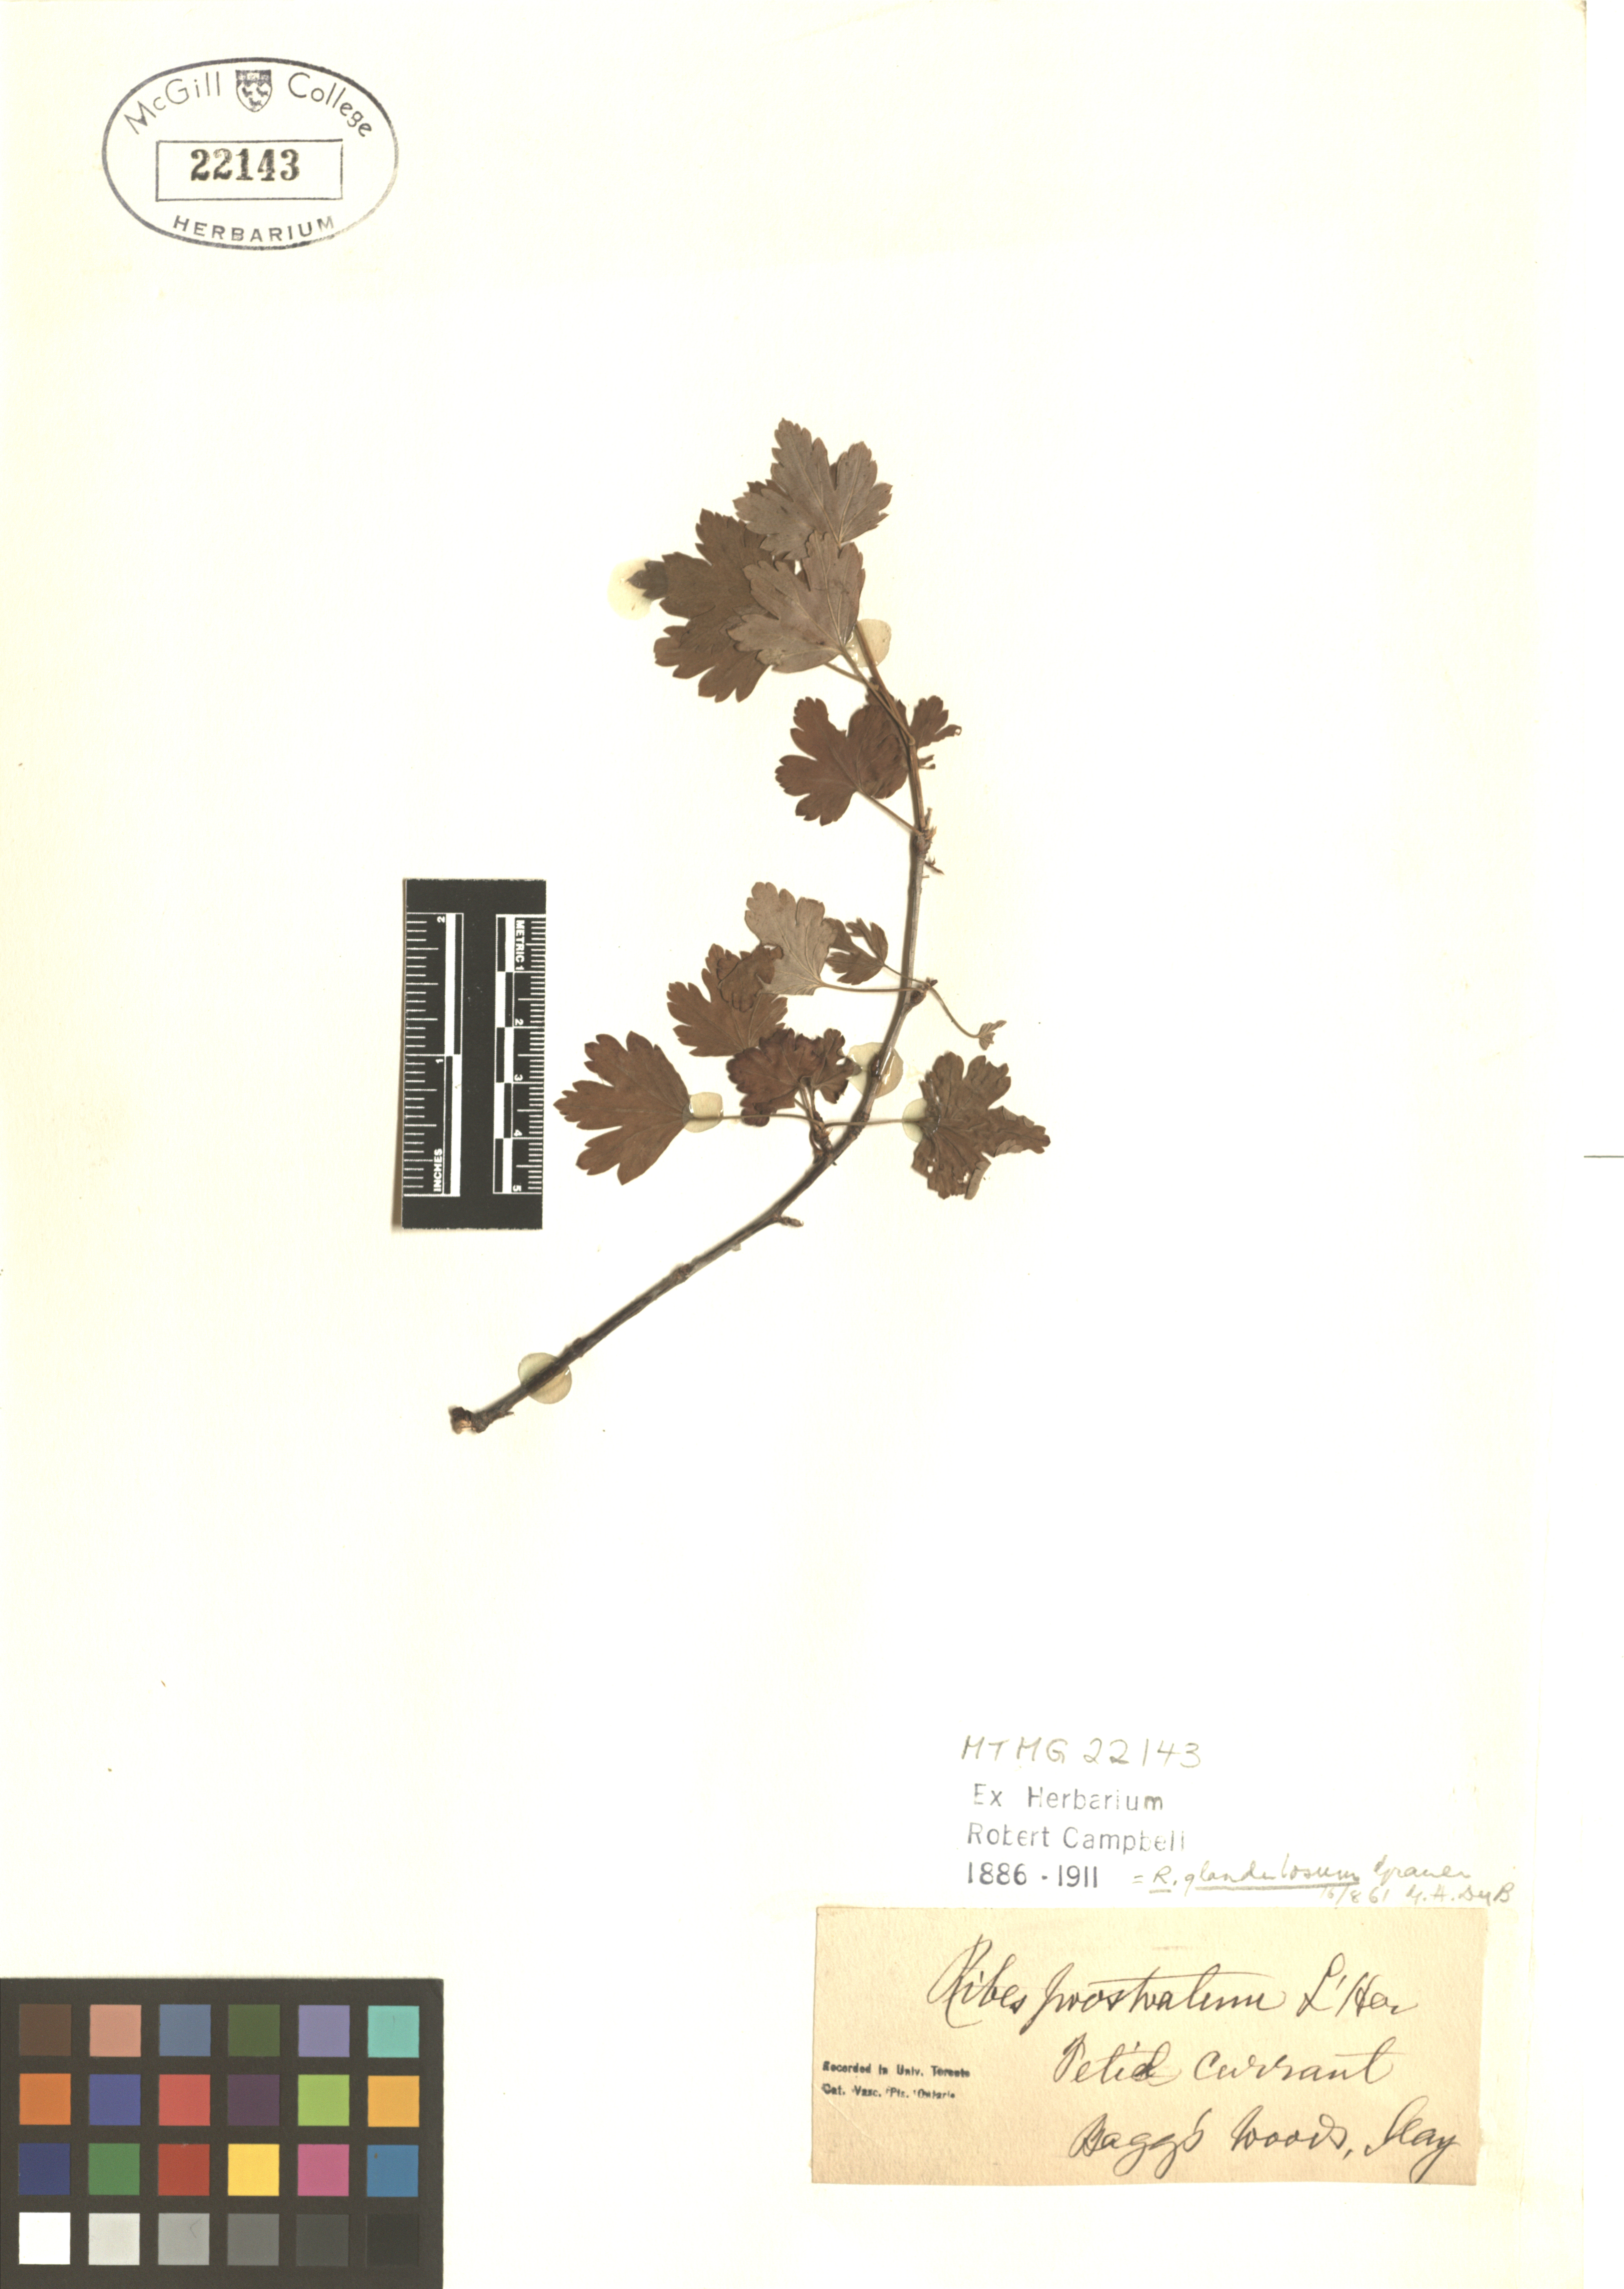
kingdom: Plantae
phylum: Tracheophyta
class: Magnoliopsida
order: Saxifragales
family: Grossulariaceae
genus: Ribes
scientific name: Ribes glandulosum
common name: Skunk currant
